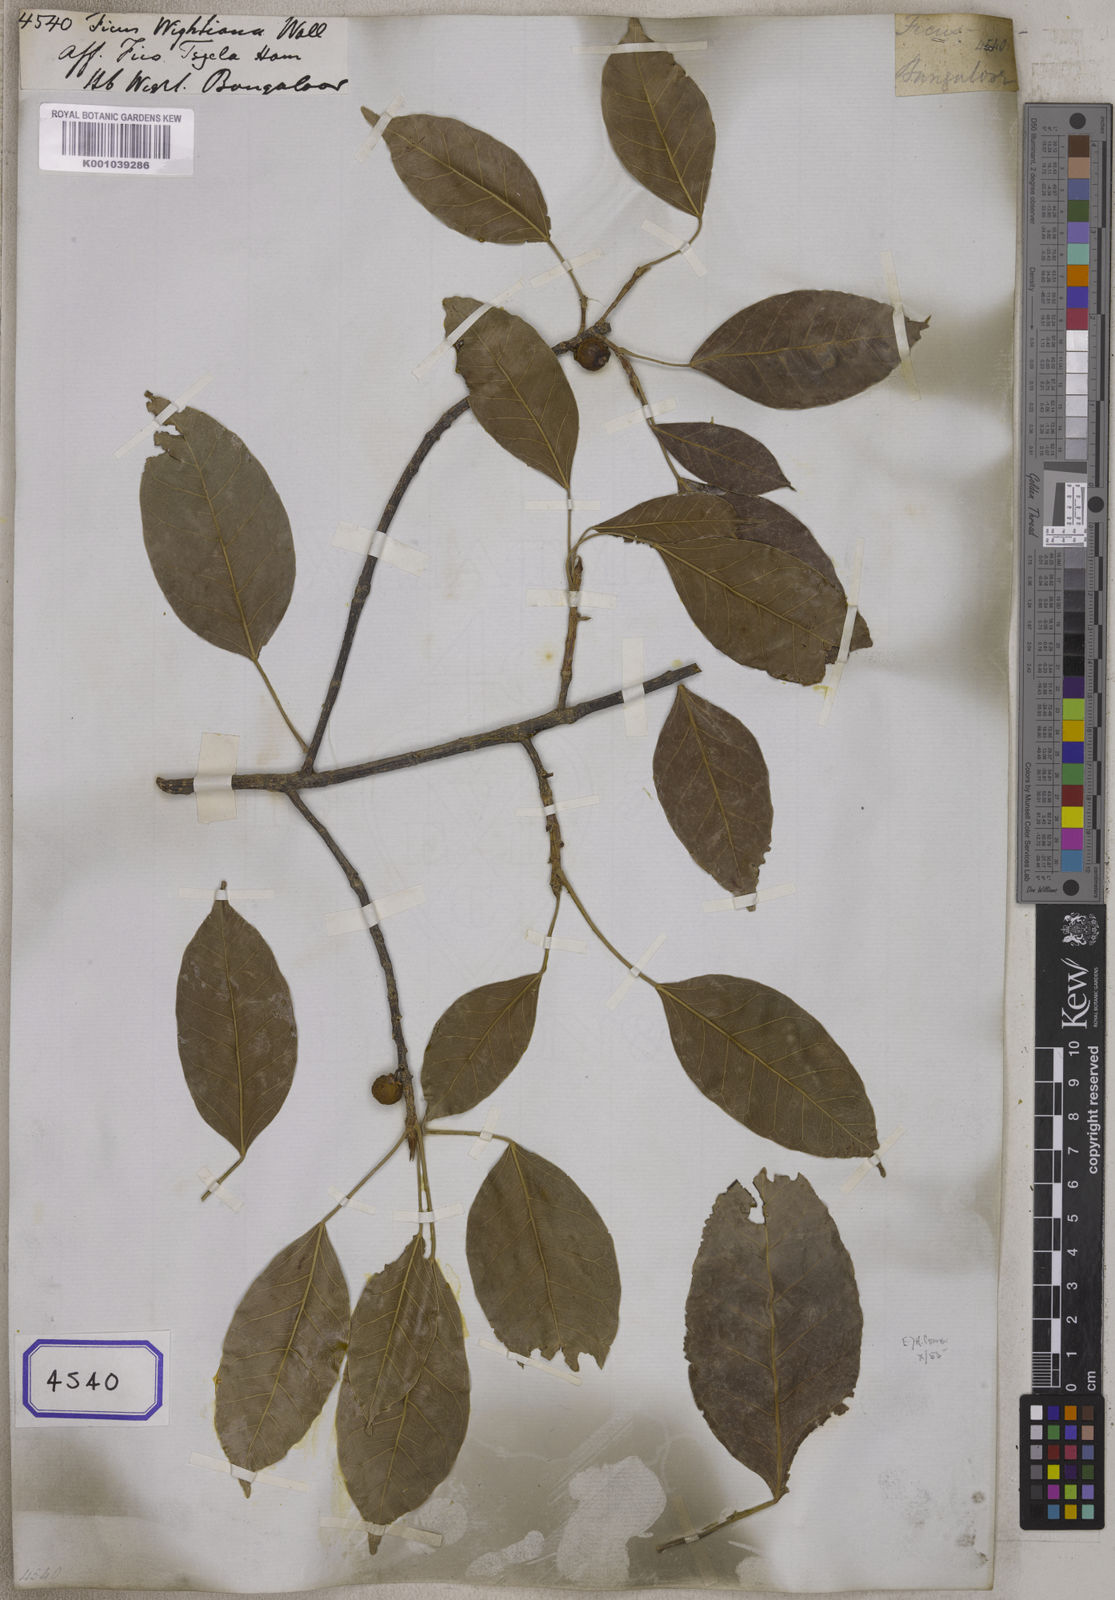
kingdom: Plantae
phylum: Tracheophyta
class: Magnoliopsida
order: Rosales
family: Moraceae
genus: Ficus
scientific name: Ficus
